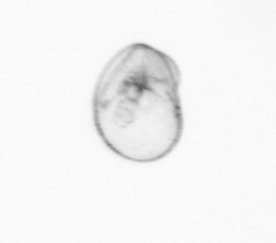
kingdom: Chromista
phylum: Myzozoa
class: Dinophyceae
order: Noctilucales
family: Noctilucaceae
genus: Noctiluca
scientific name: Noctiluca scintillans
